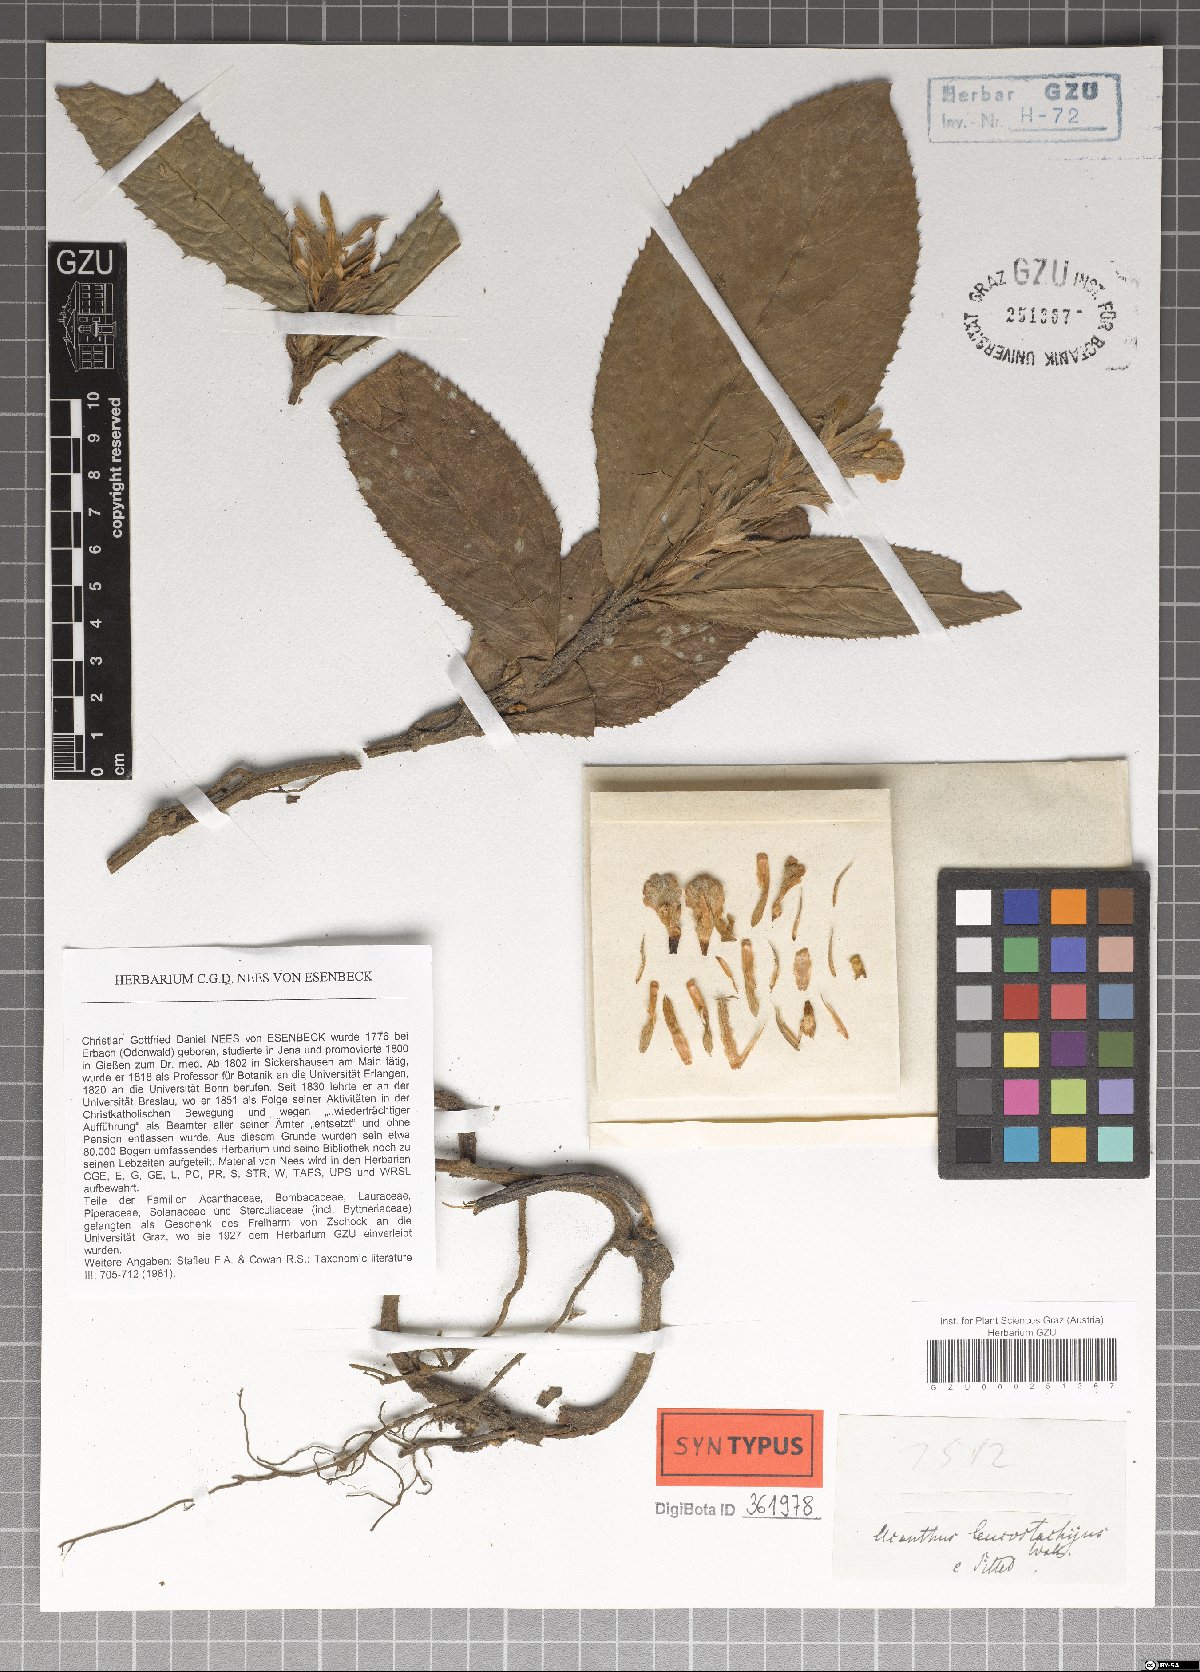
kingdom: Plantae
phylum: Tracheophyta
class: Magnoliopsida
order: Lamiales
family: Acanthaceae
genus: Acanthus
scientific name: Acanthus leucostachyus
